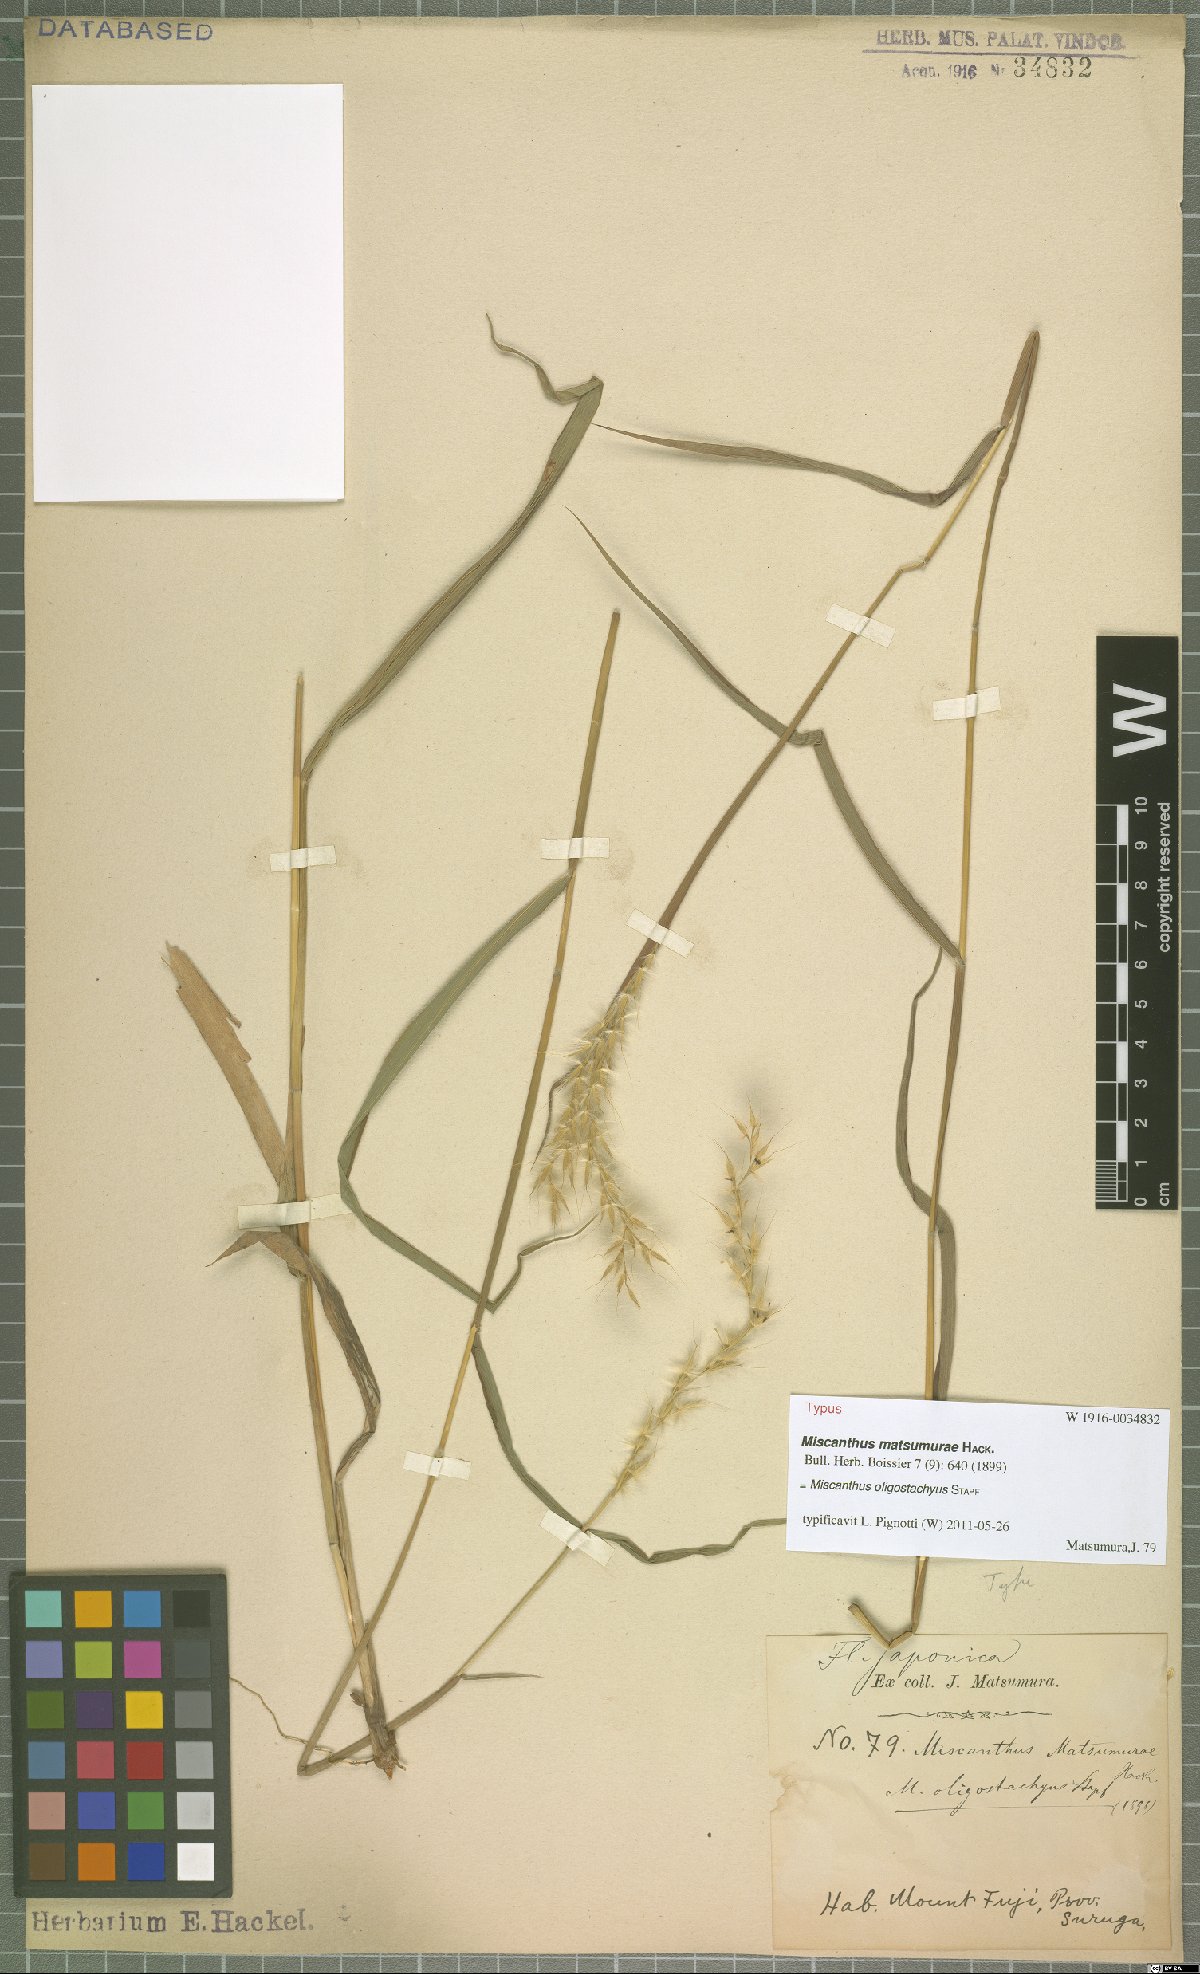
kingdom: Plantae
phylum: Tracheophyta
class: Liliopsida
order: Poales
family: Poaceae
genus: Miscanthus
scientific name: Miscanthus oligostachyus
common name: Small japanese silver grass
